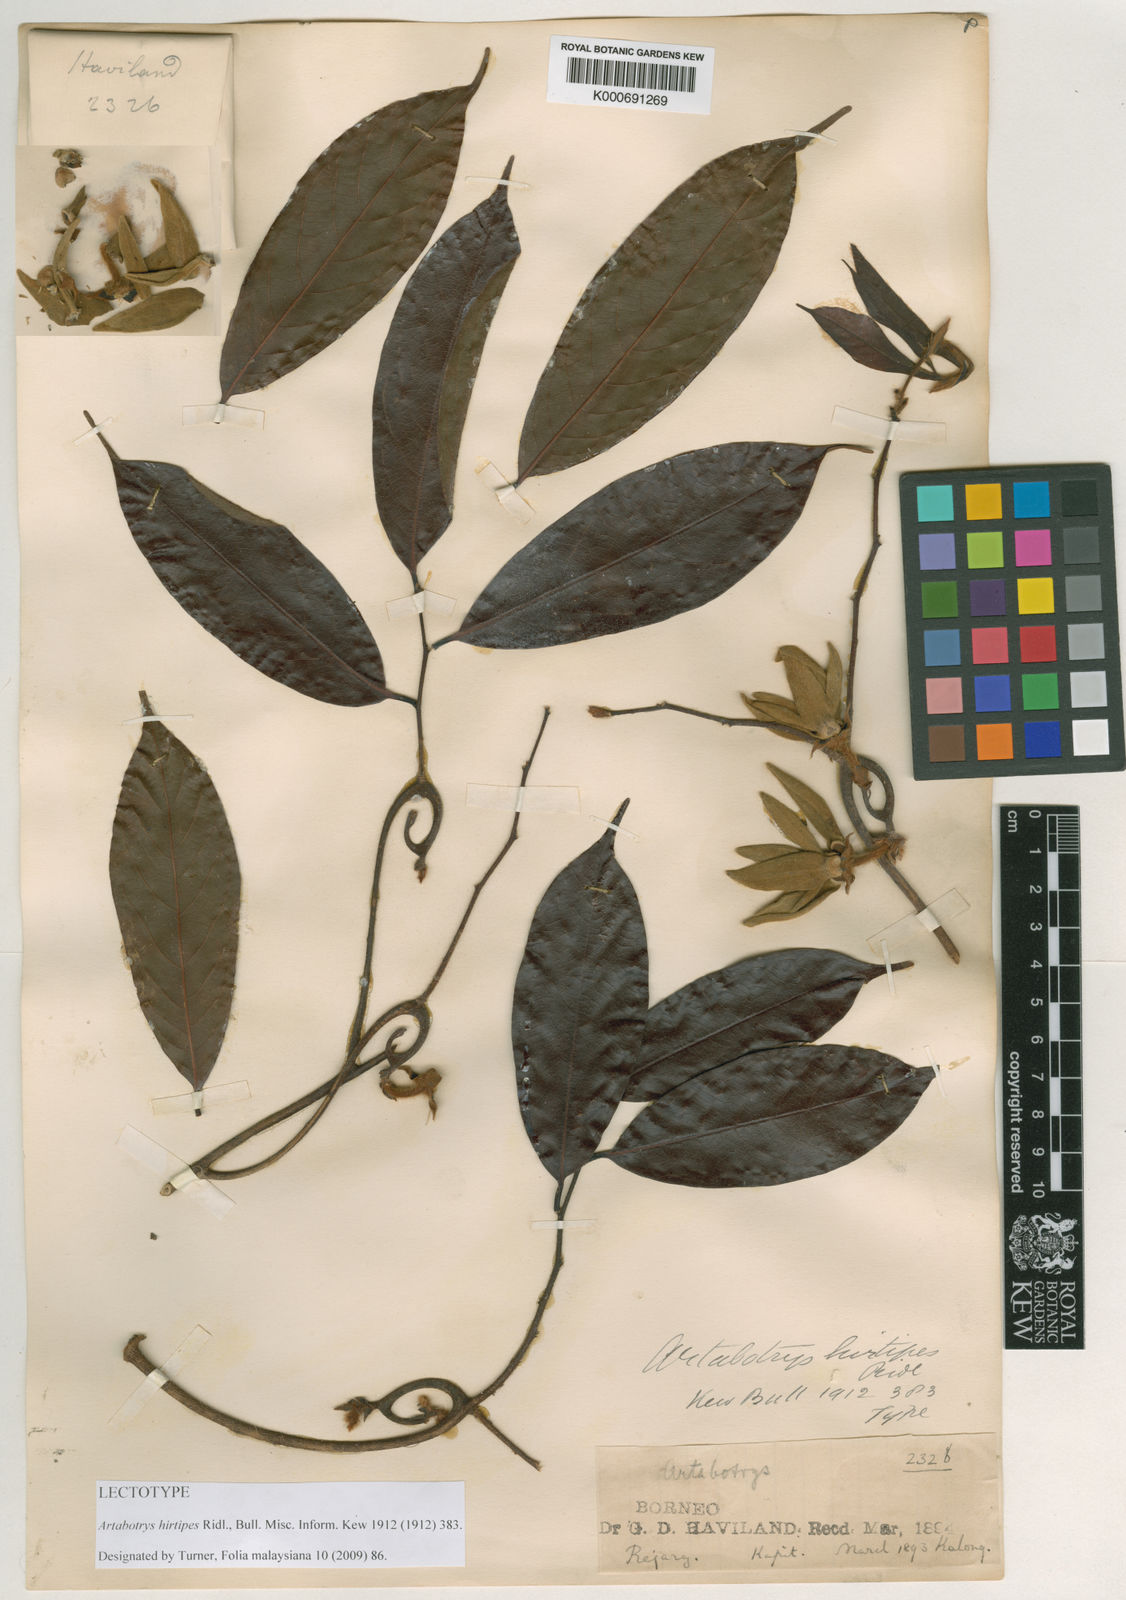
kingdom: Plantae
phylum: Tracheophyta
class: Magnoliopsida
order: Magnoliales
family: Annonaceae
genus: Artabotrys
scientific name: Artabotrys hirtipes
